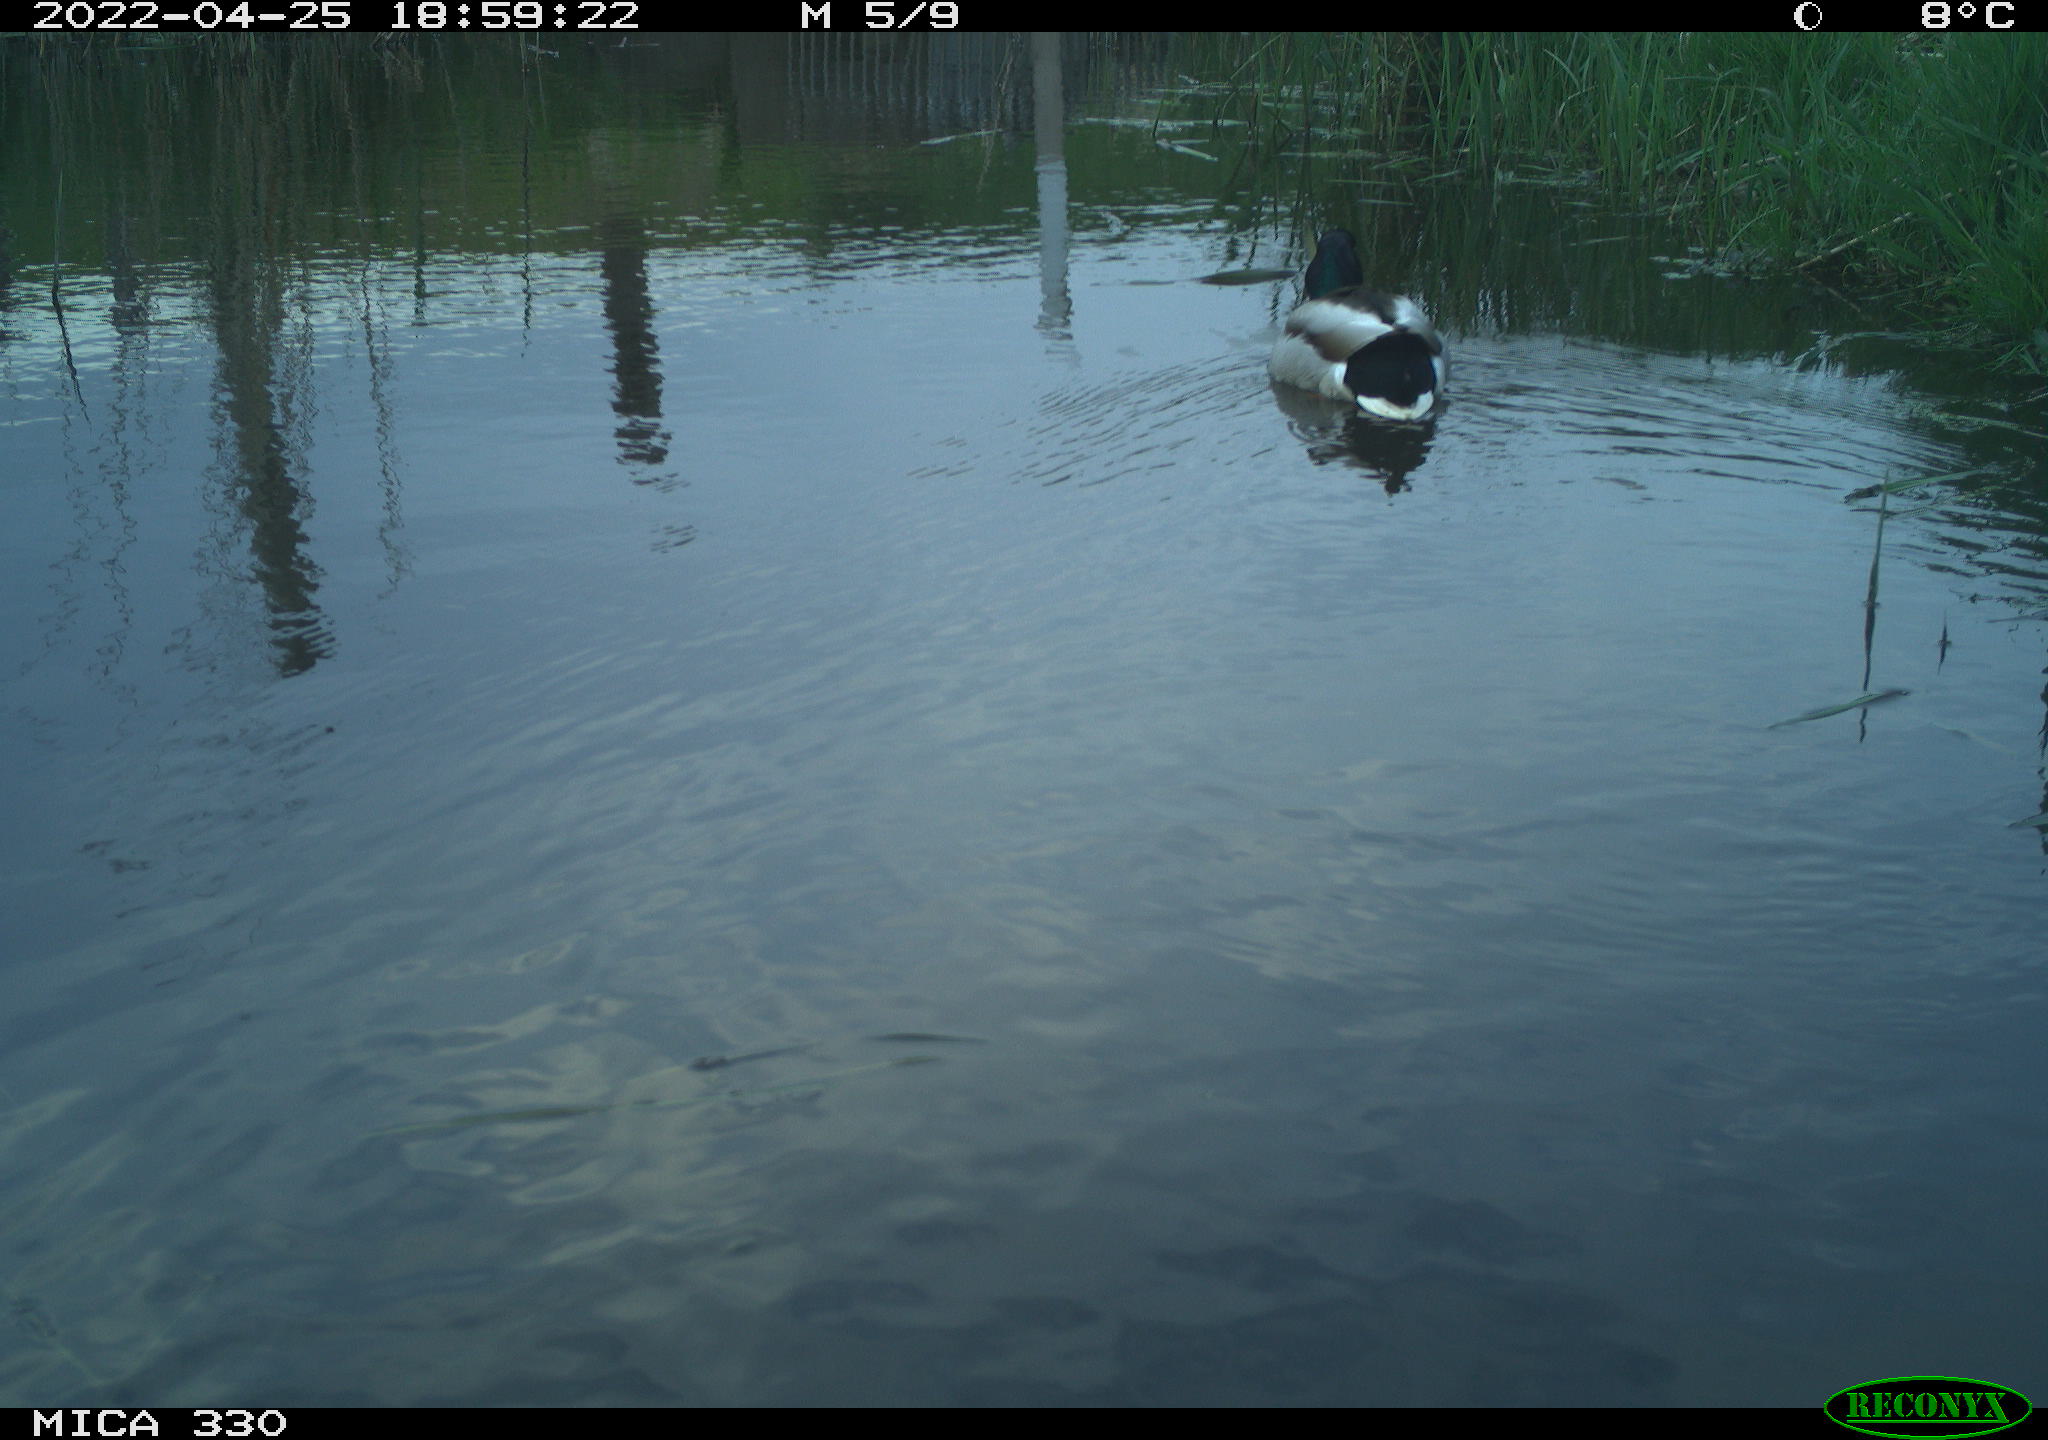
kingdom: Animalia
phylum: Chordata
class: Aves
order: Anseriformes
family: Anatidae
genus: Anas
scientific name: Anas platyrhynchos
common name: Mallard
